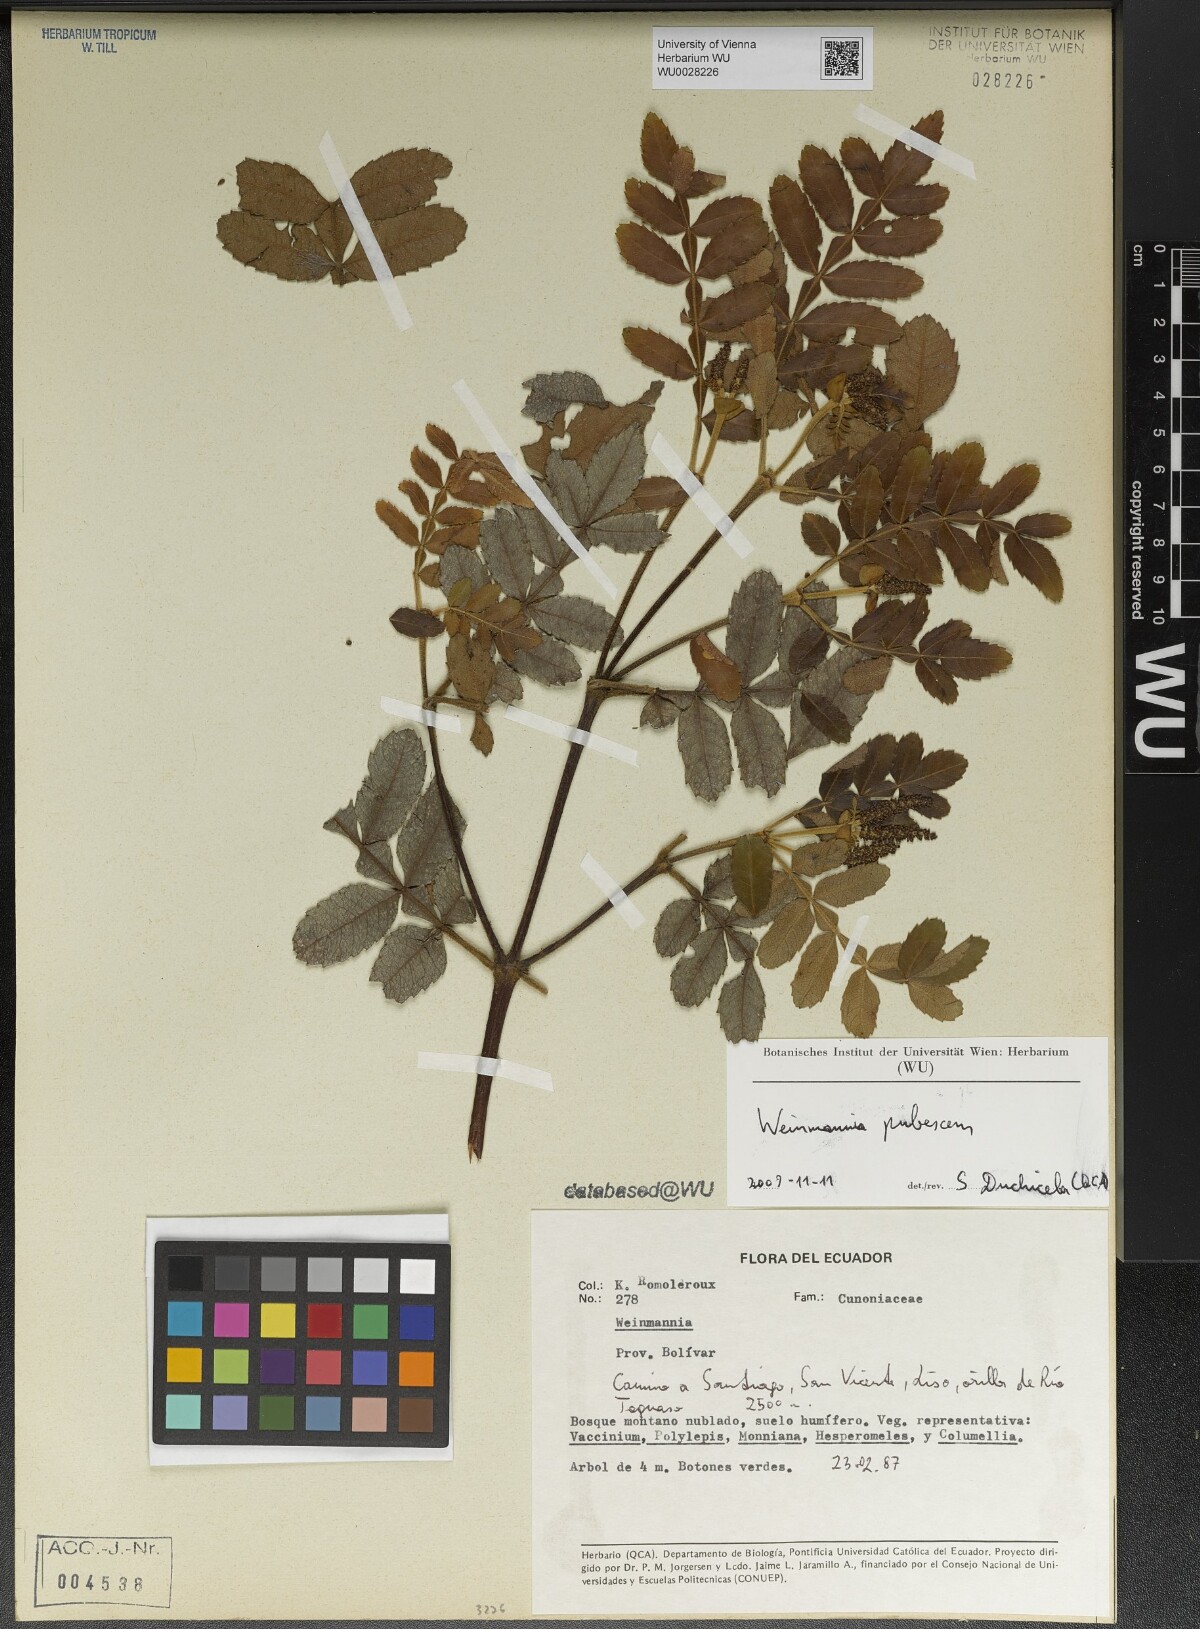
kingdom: Plantae
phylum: Tracheophyta
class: Magnoliopsida
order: Oxalidales
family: Cunoniaceae
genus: Weinmannia
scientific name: Weinmannia pubescens
